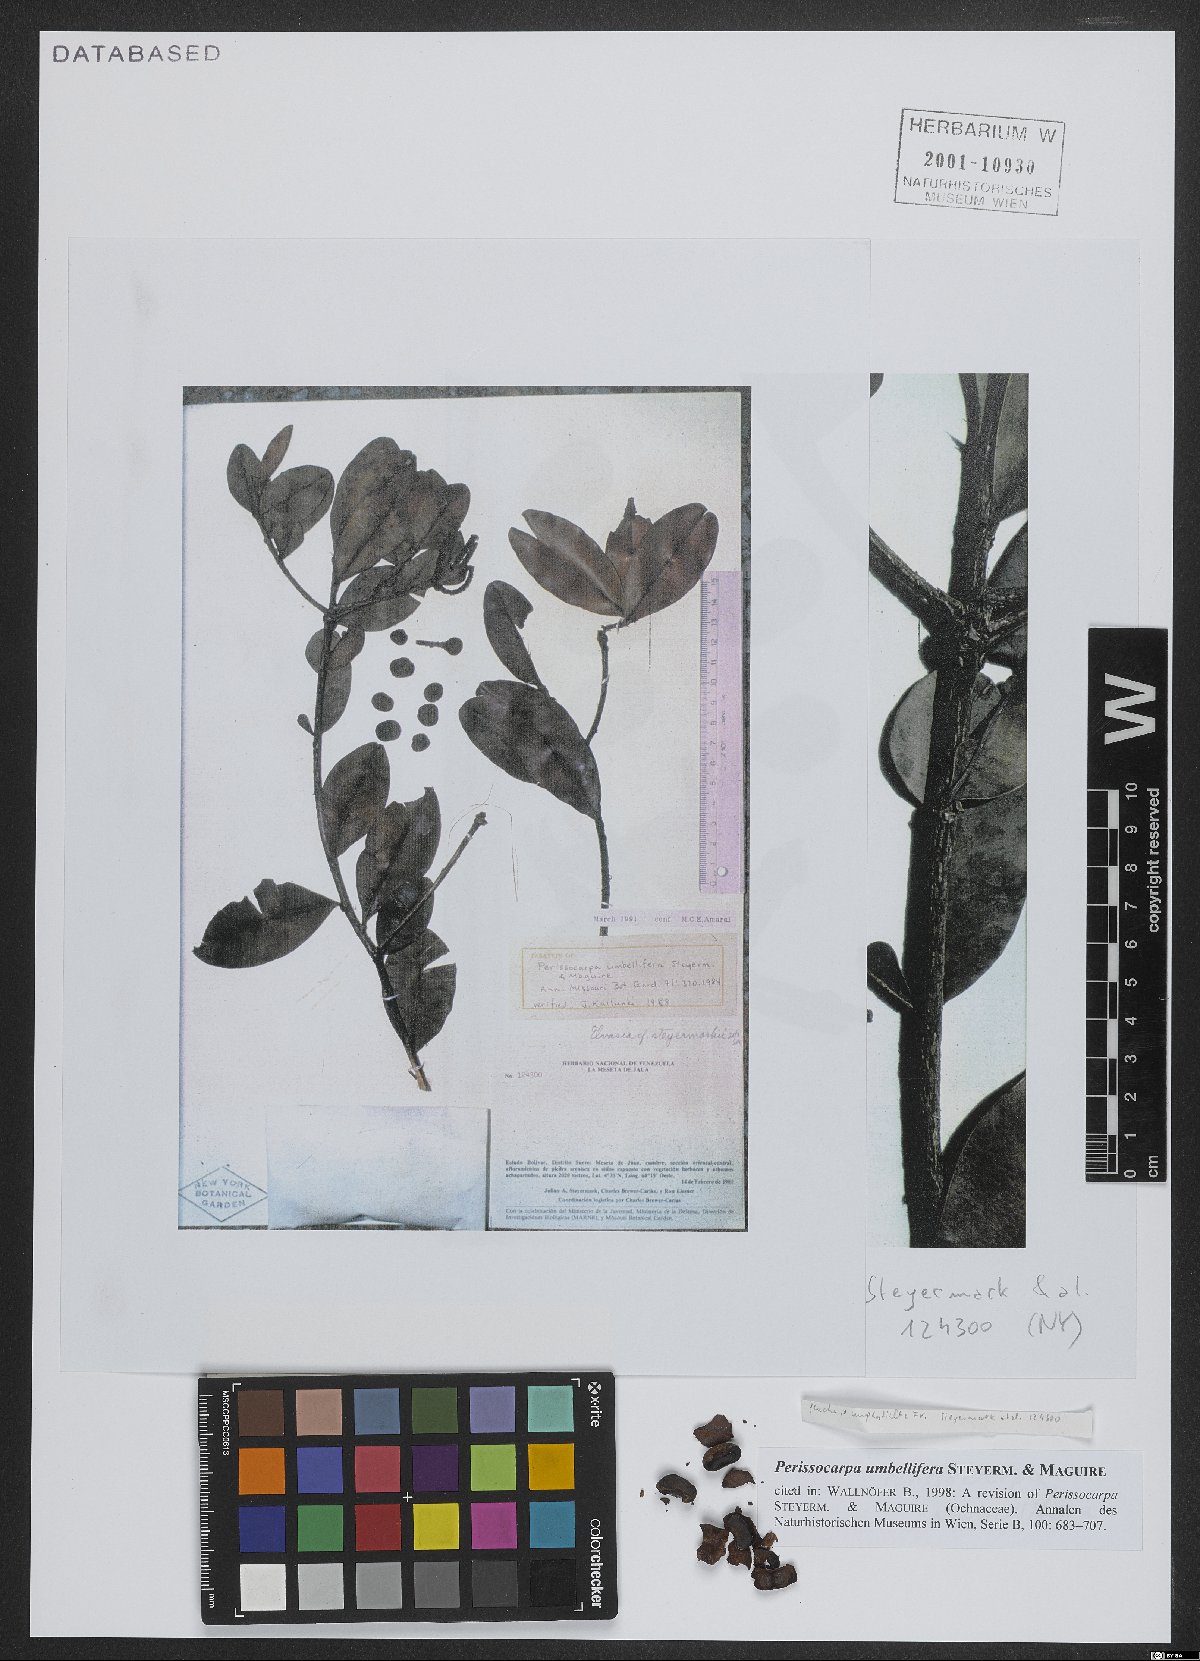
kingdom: Plantae
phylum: Tracheophyta
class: Magnoliopsida
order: Malpighiales
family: Ochnaceae
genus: Perissocarpa
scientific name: Perissocarpa umbellifera
